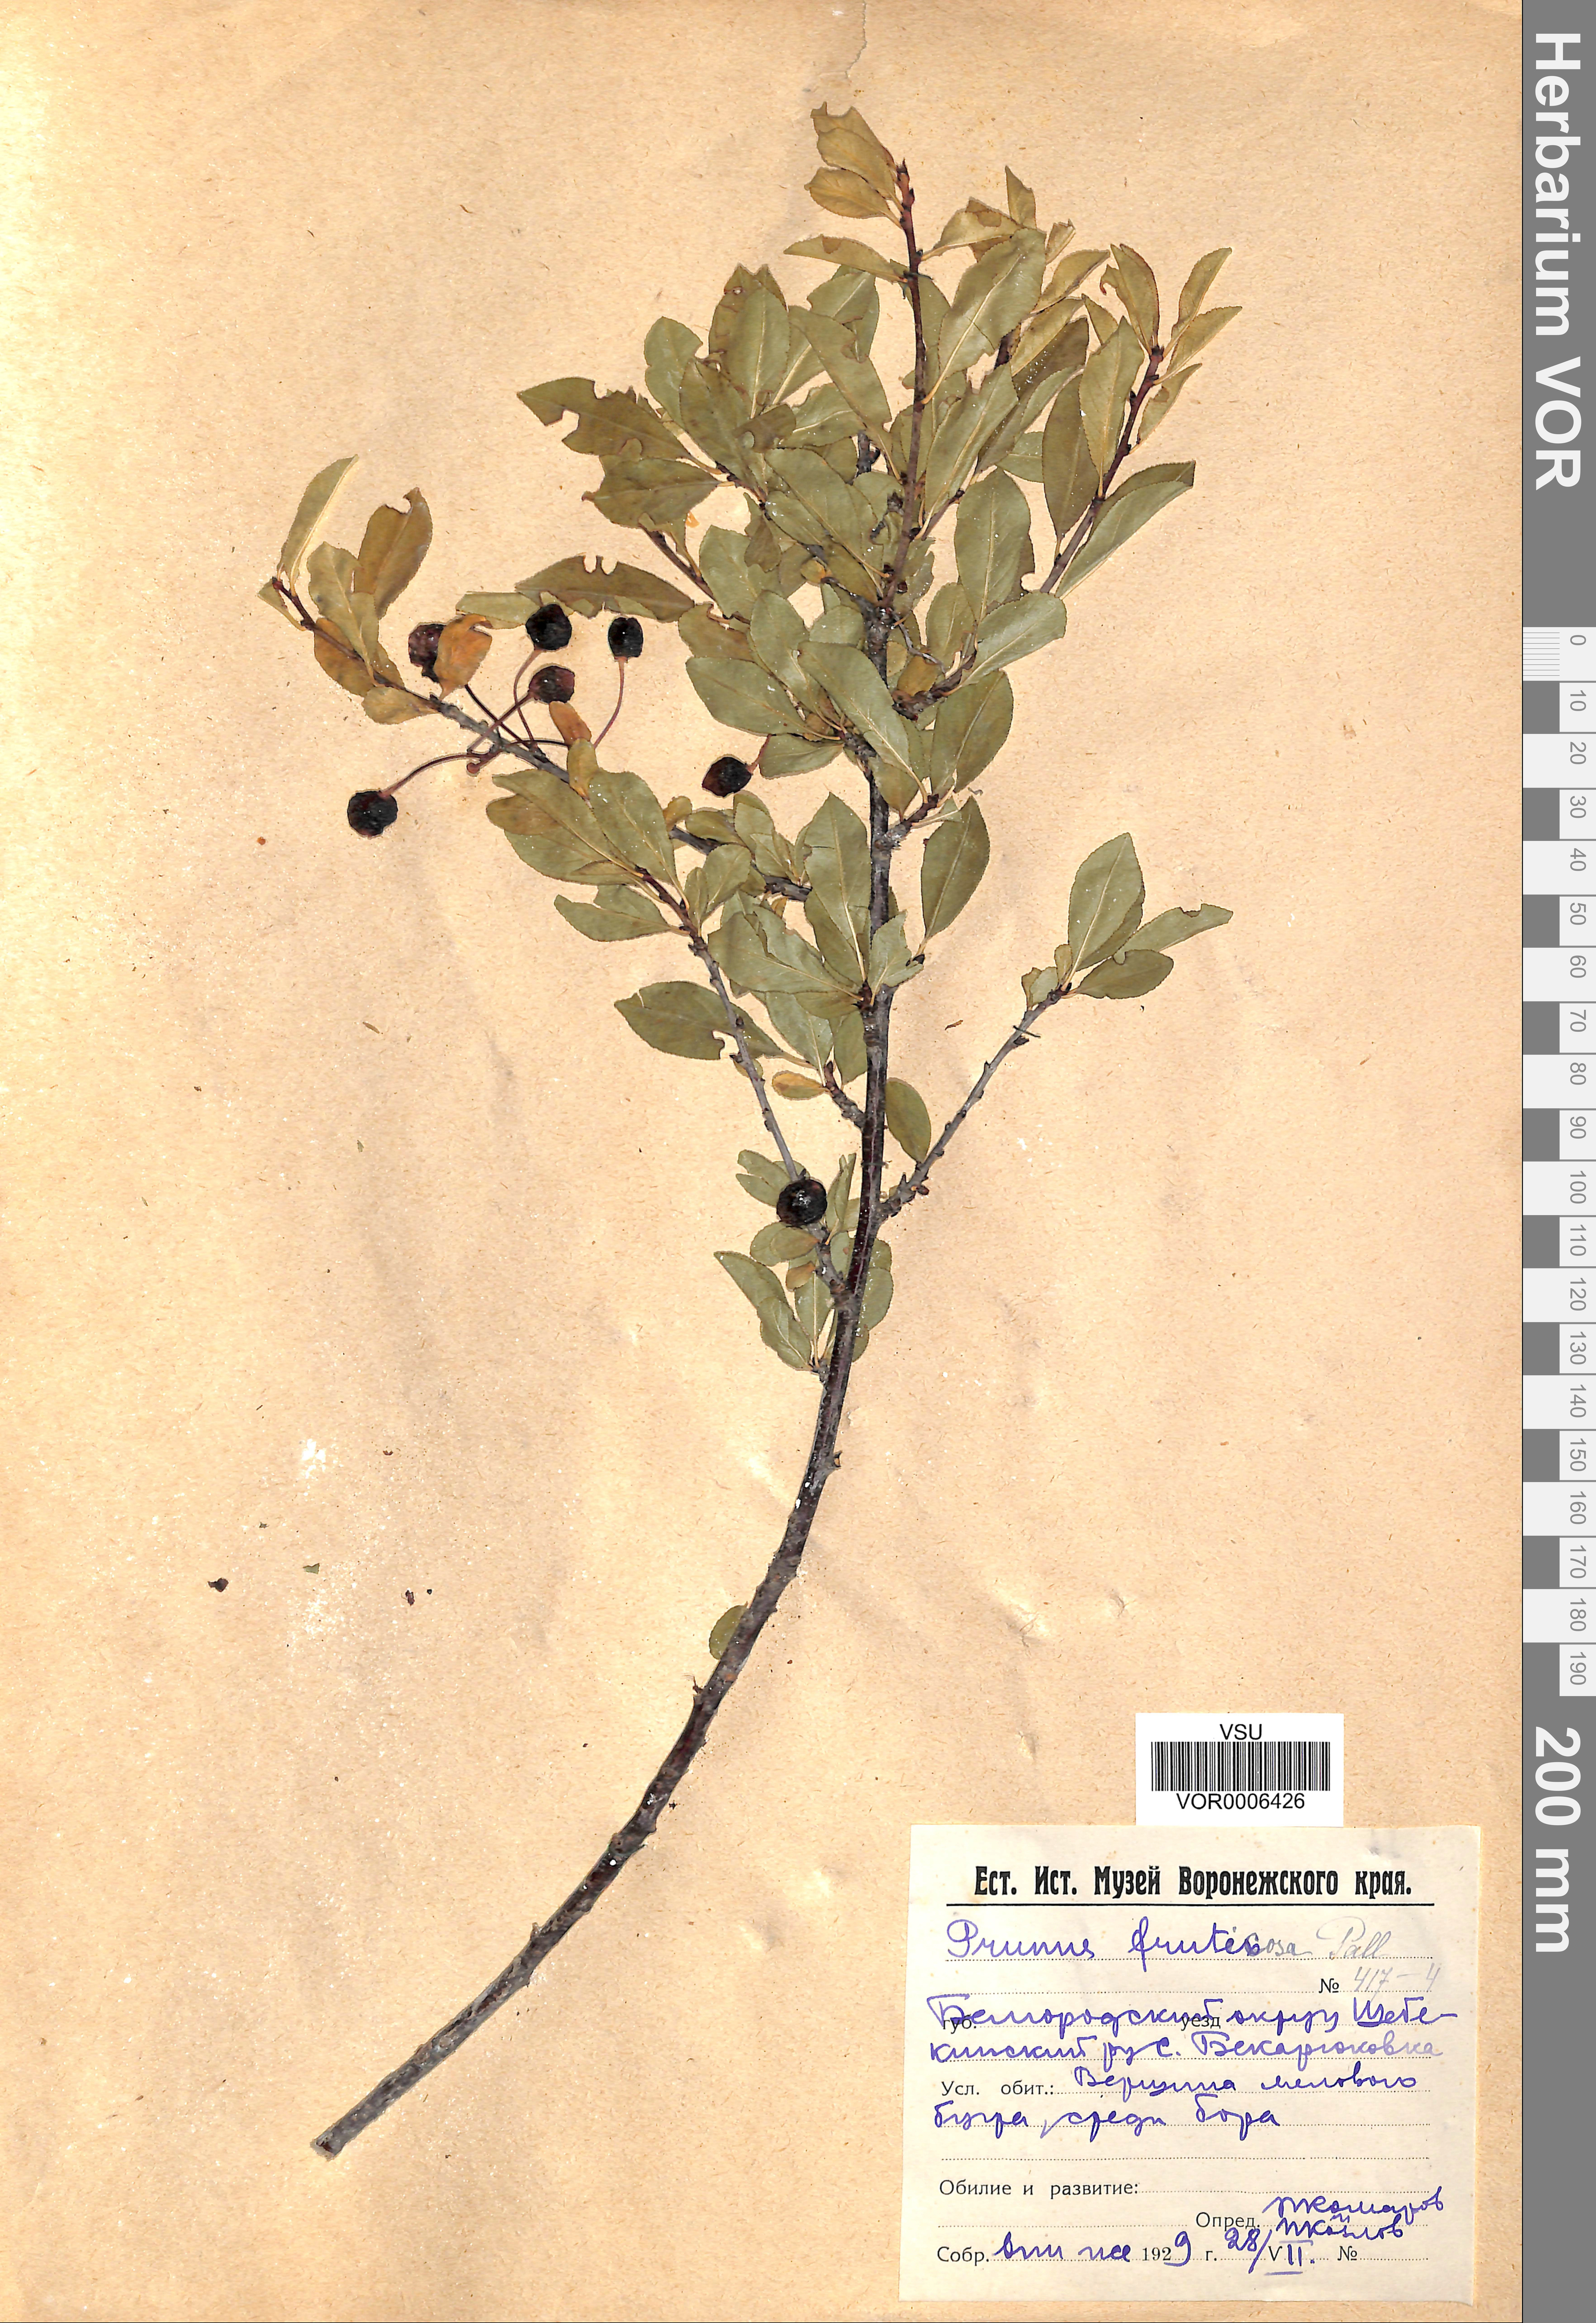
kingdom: Plantae
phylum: Tracheophyta
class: Magnoliopsida
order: Rosales
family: Rosaceae
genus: Prunus
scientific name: Prunus fruticosa
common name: European dwarf cherry
